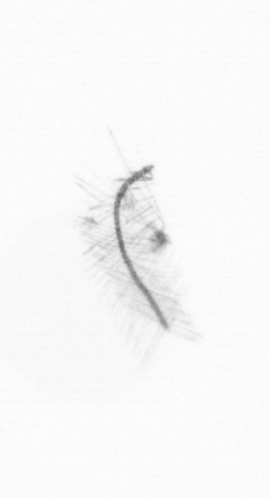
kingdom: Chromista
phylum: Ochrophyta
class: Bacillariophyceae
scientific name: Bacillariophyceae
